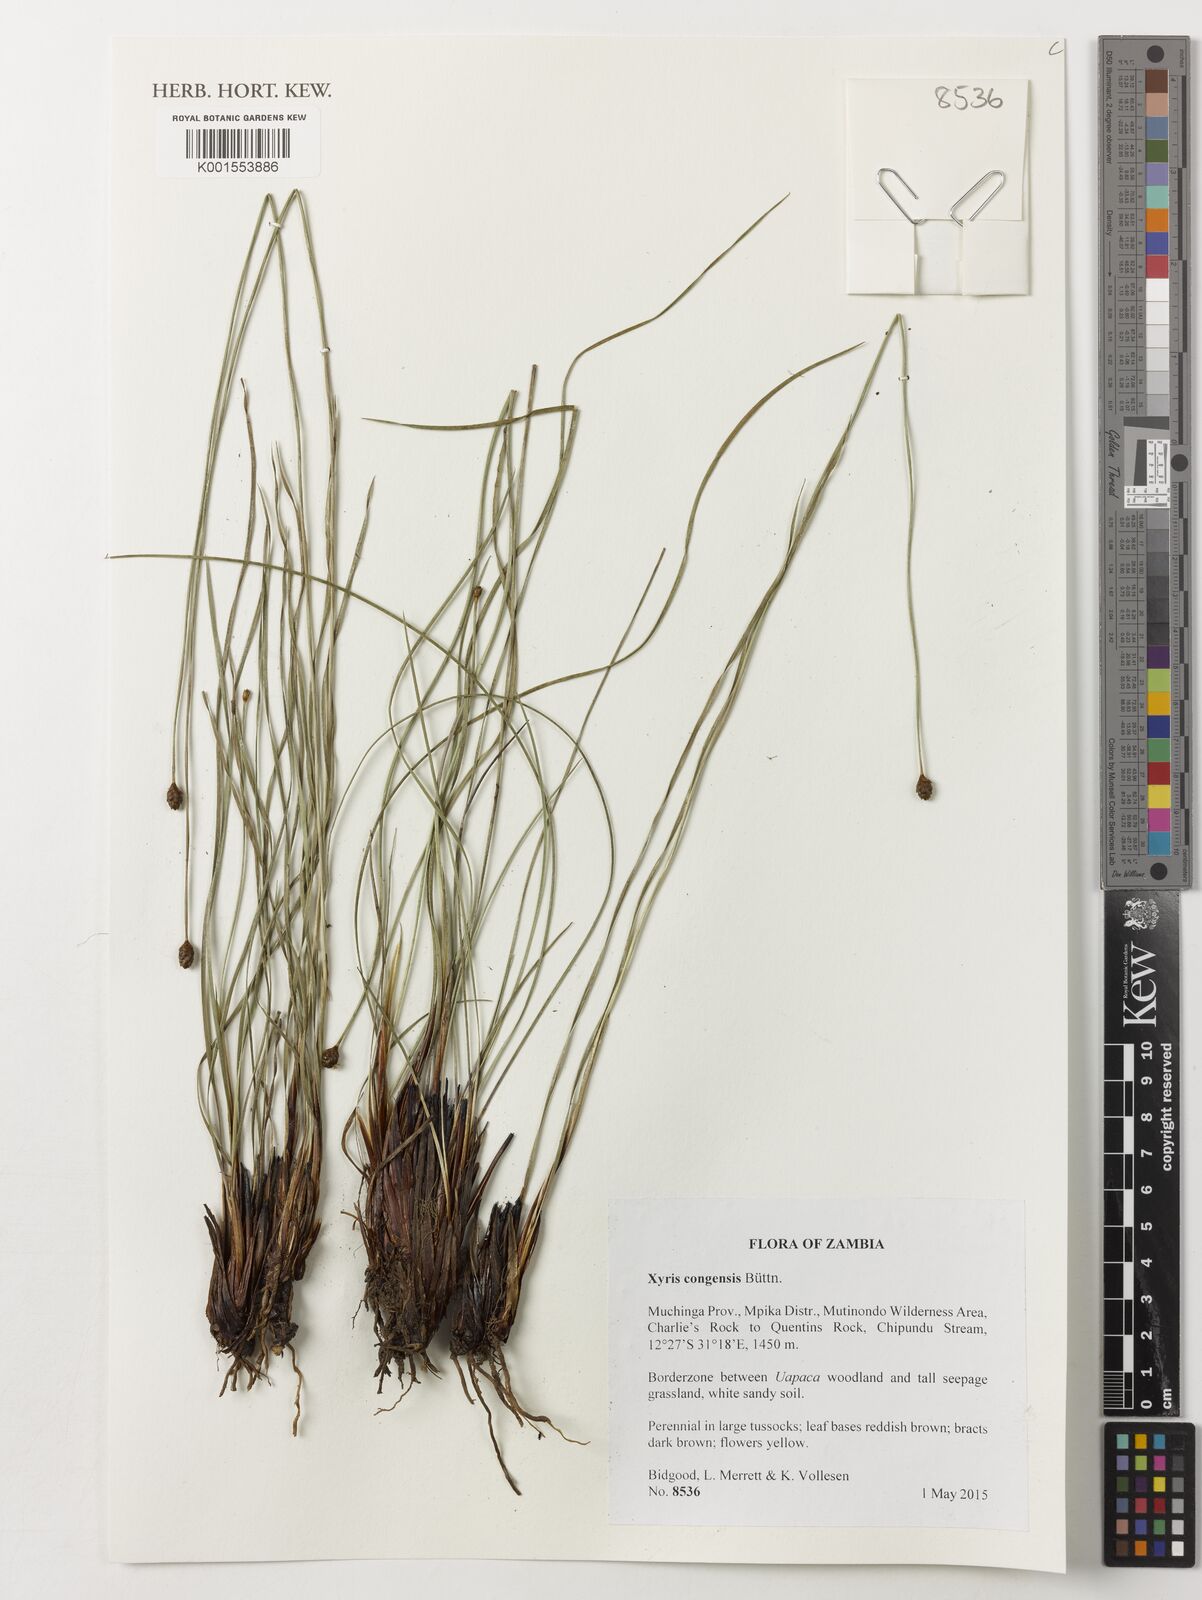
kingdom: Plantae
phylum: Tracheophyta
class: Liliopsida
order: Poales
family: Xyridaceae
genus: Xyris
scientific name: Xyris congensis
